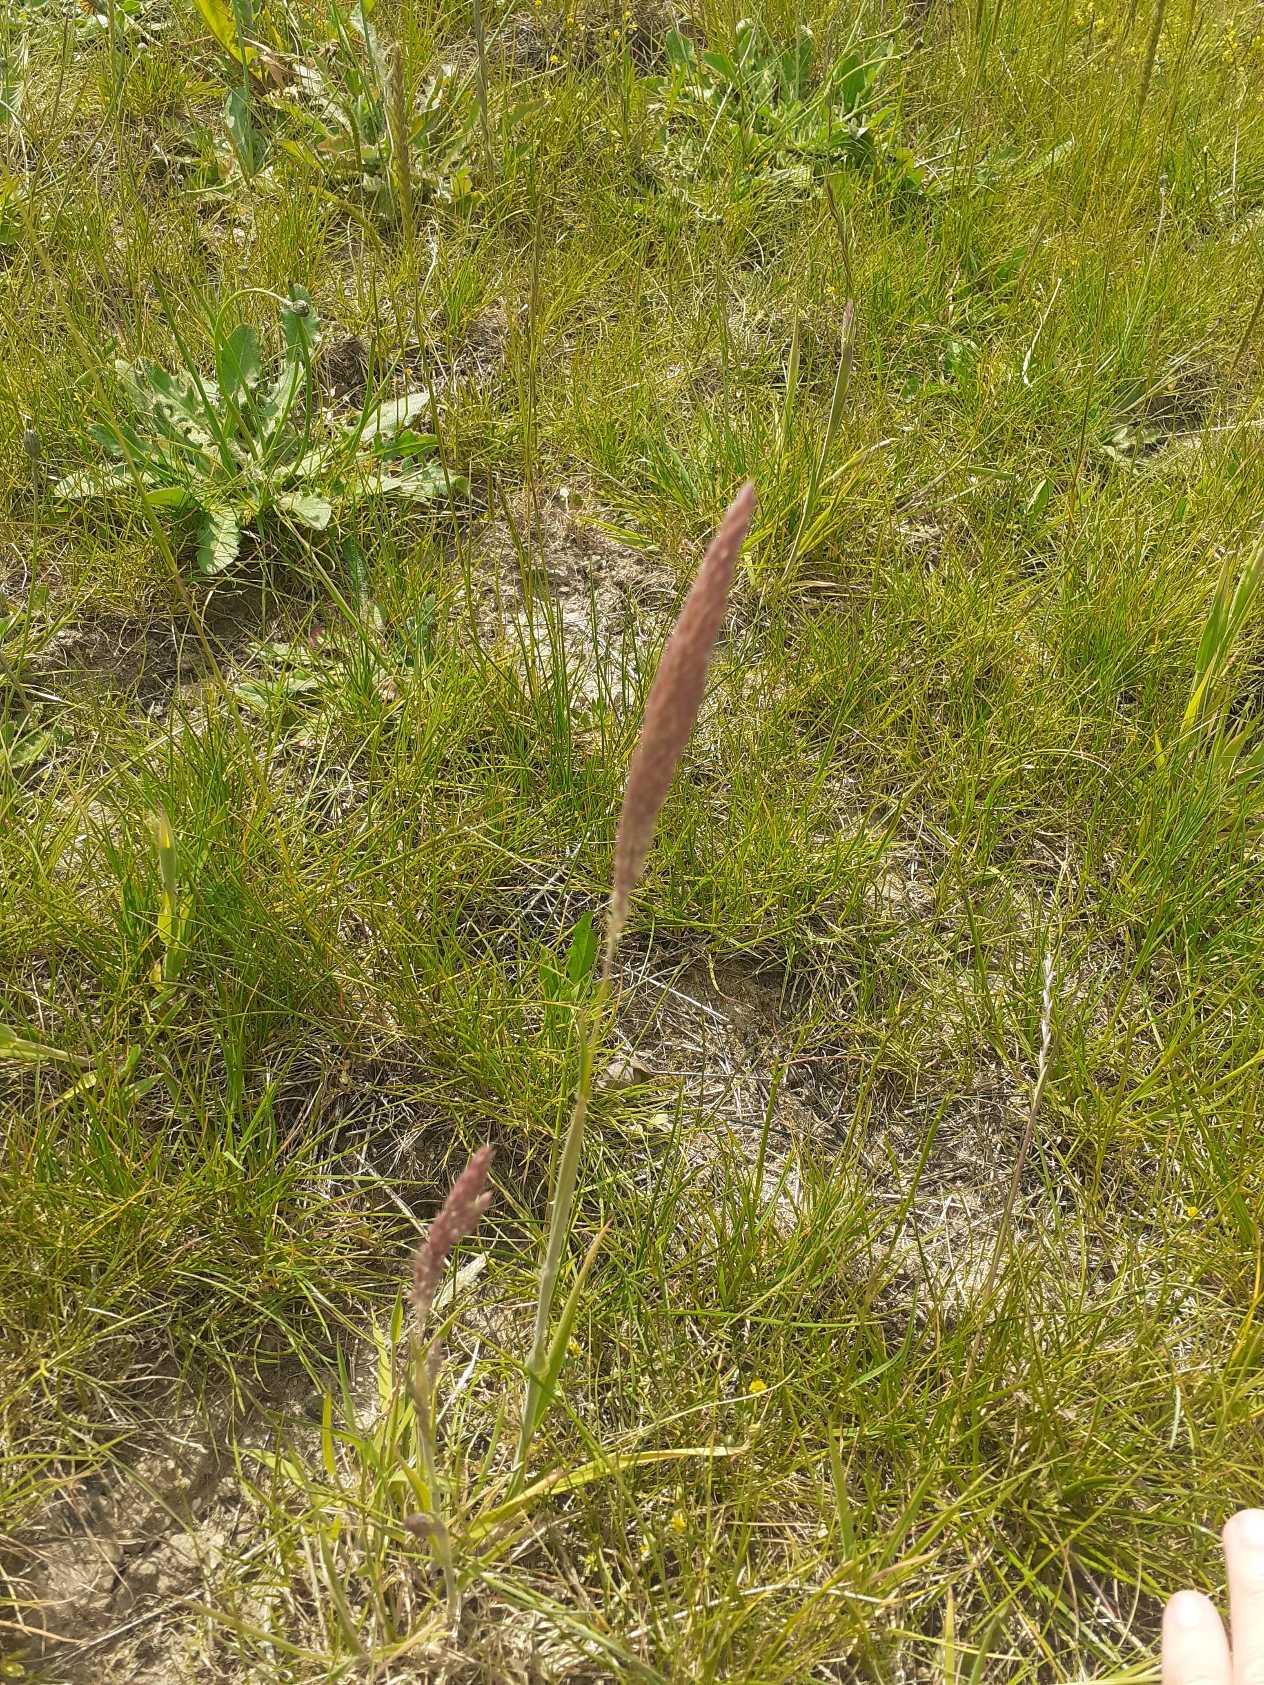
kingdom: Plantae
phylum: Tracheophyta
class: Liliopsida
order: Poales
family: Poaceae
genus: Holcus
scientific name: Holcus lanatus
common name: Fløjlsgræs
